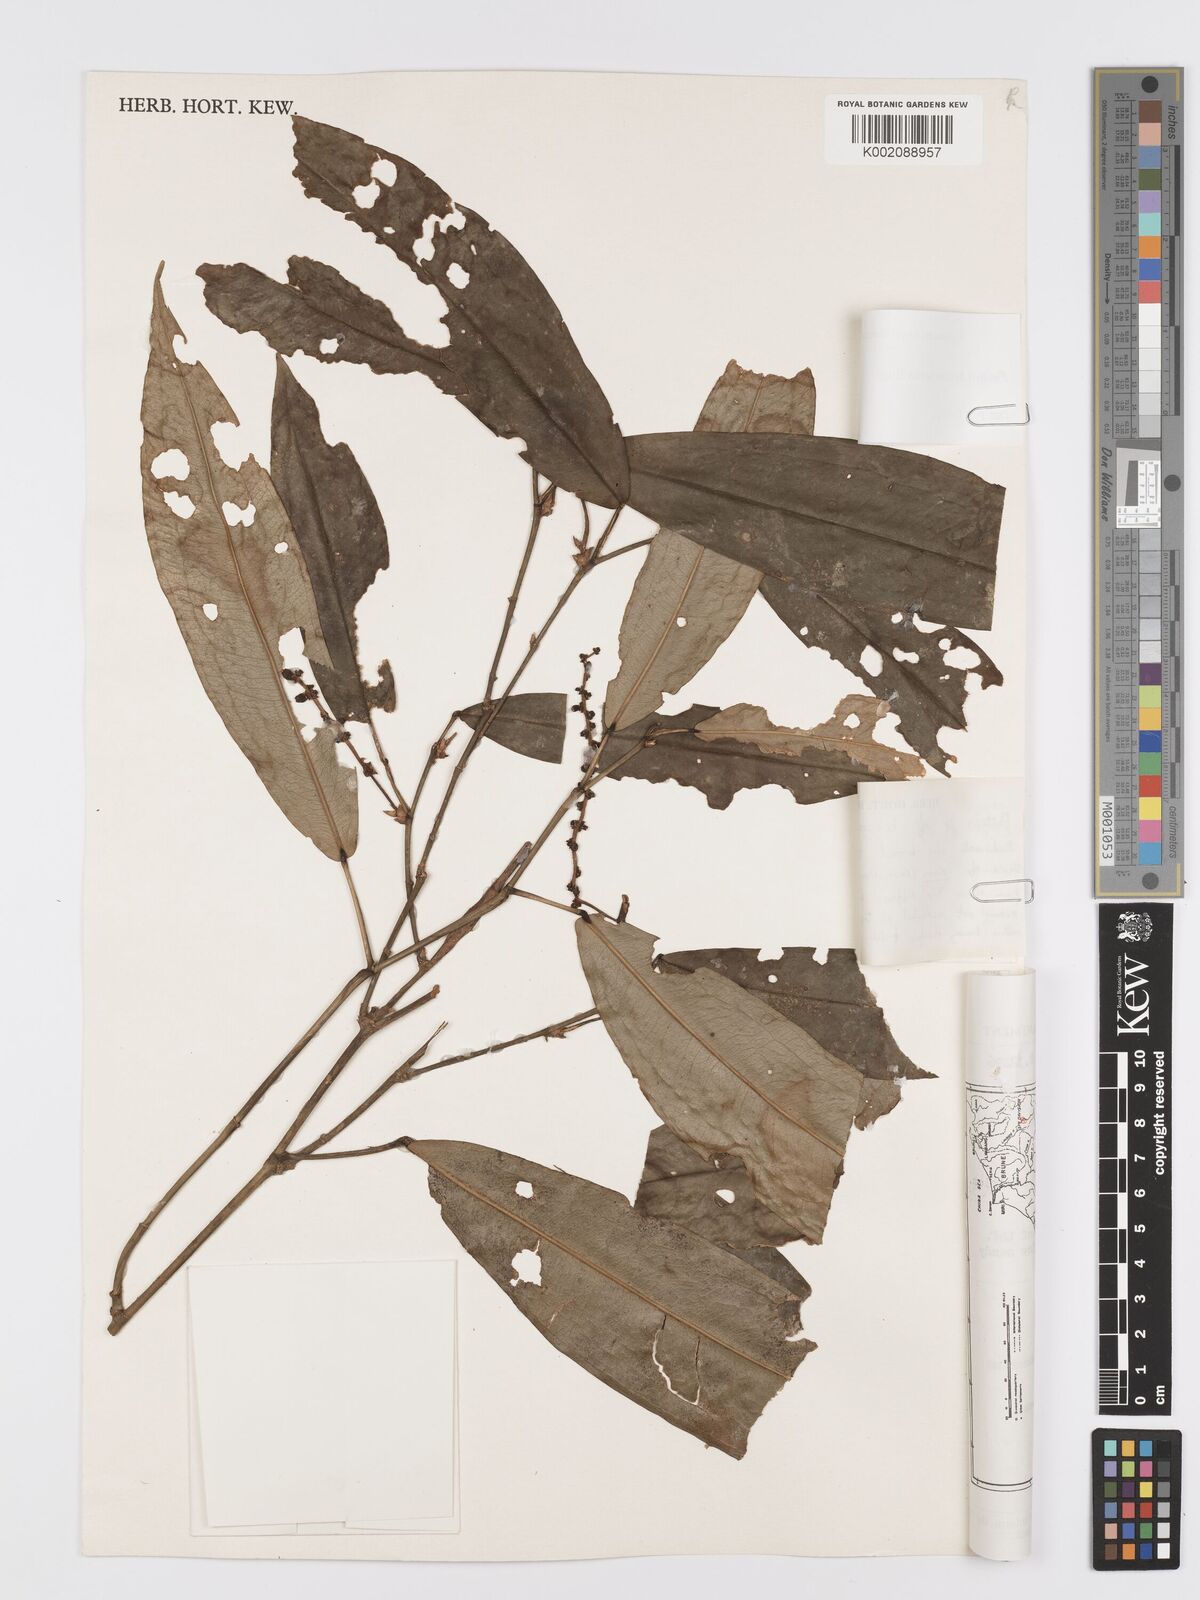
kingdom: Plantae
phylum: Tracheophyta
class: Liliopsida
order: Alismatales
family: Araceae
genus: Pothos
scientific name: Pothos beccarianus
